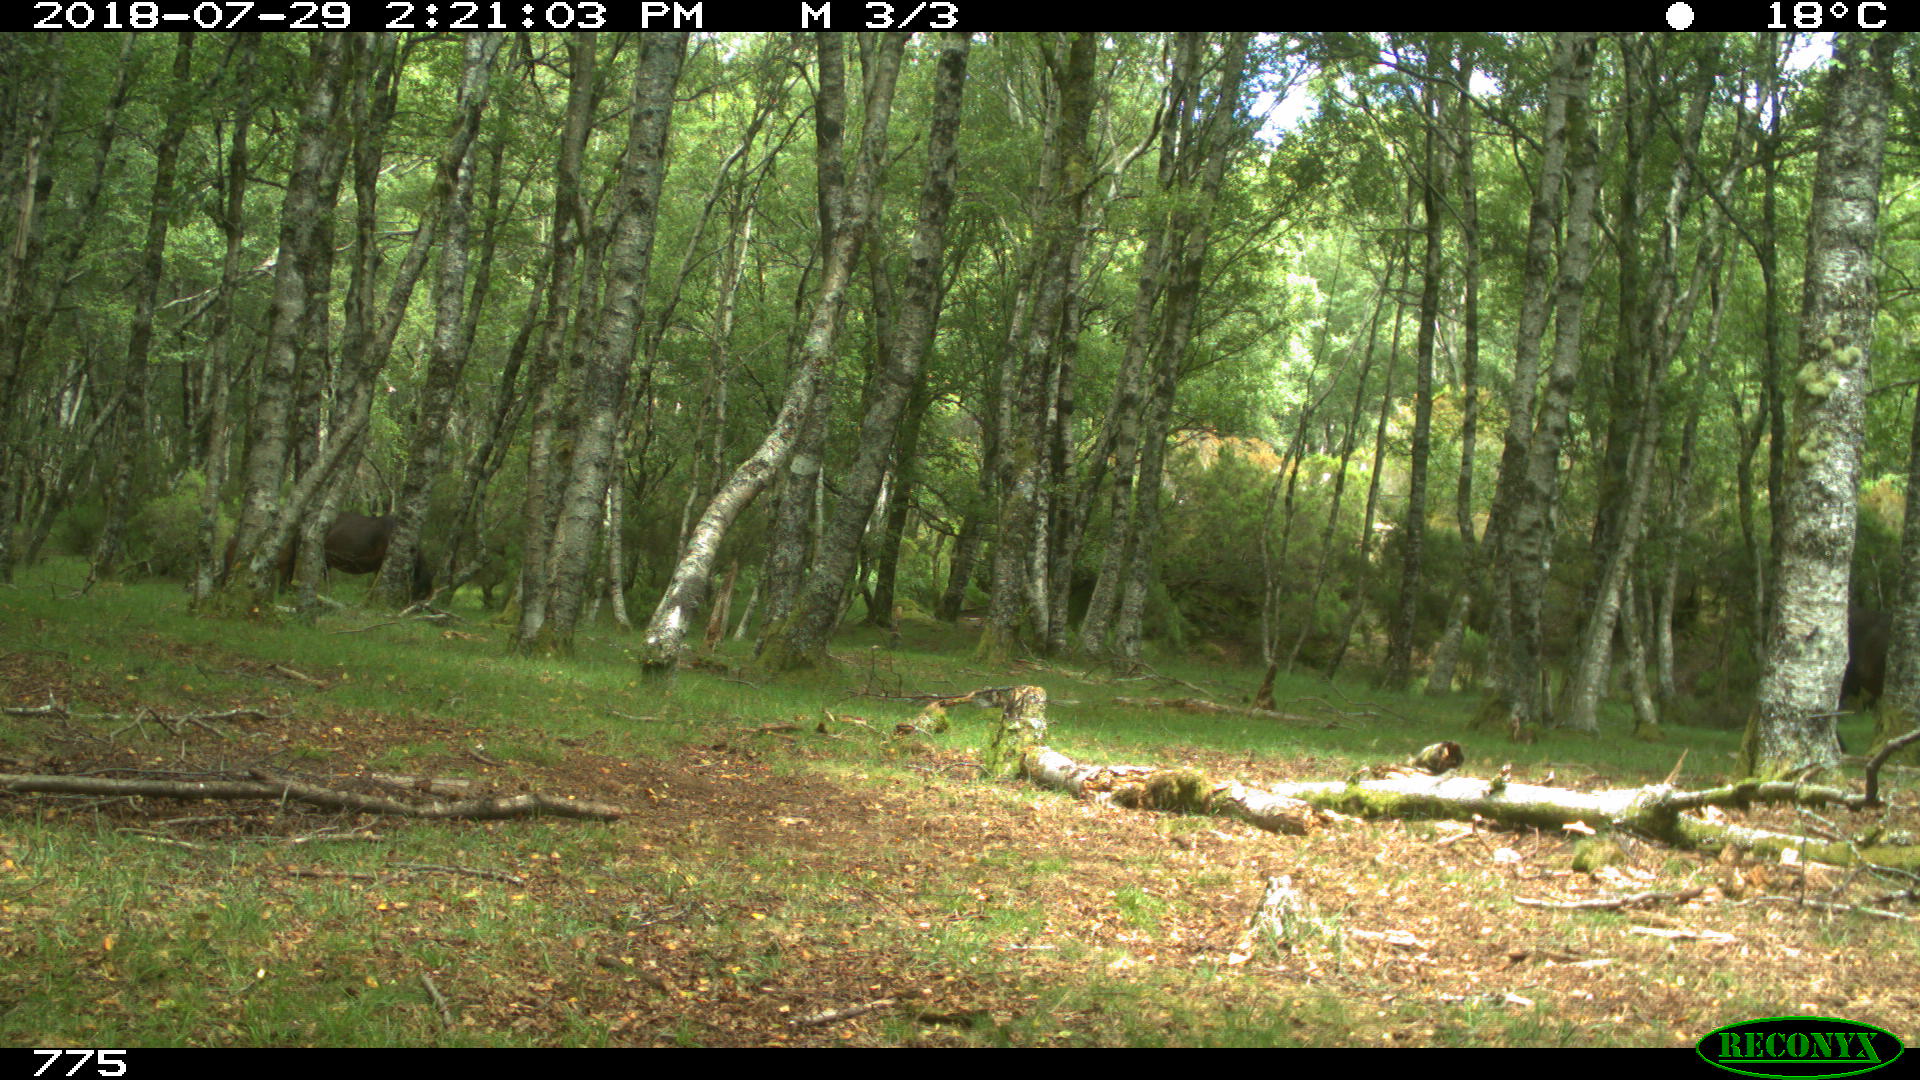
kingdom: Animalia
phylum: Chordata
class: Mammalia
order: Perissodactyla
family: Equidae
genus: Equus
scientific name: Equus caballus
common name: Horse
